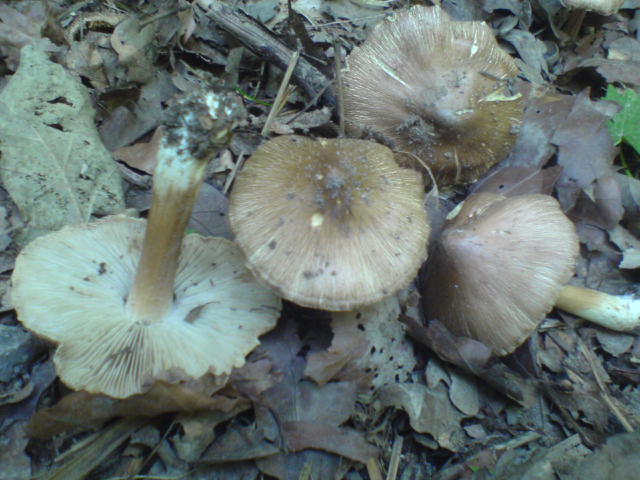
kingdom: Fungi
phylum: Basidiomycota
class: Agaricomycetes
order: Agaricales
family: Inocybaceae
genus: Inosperma
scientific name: Inosperma
